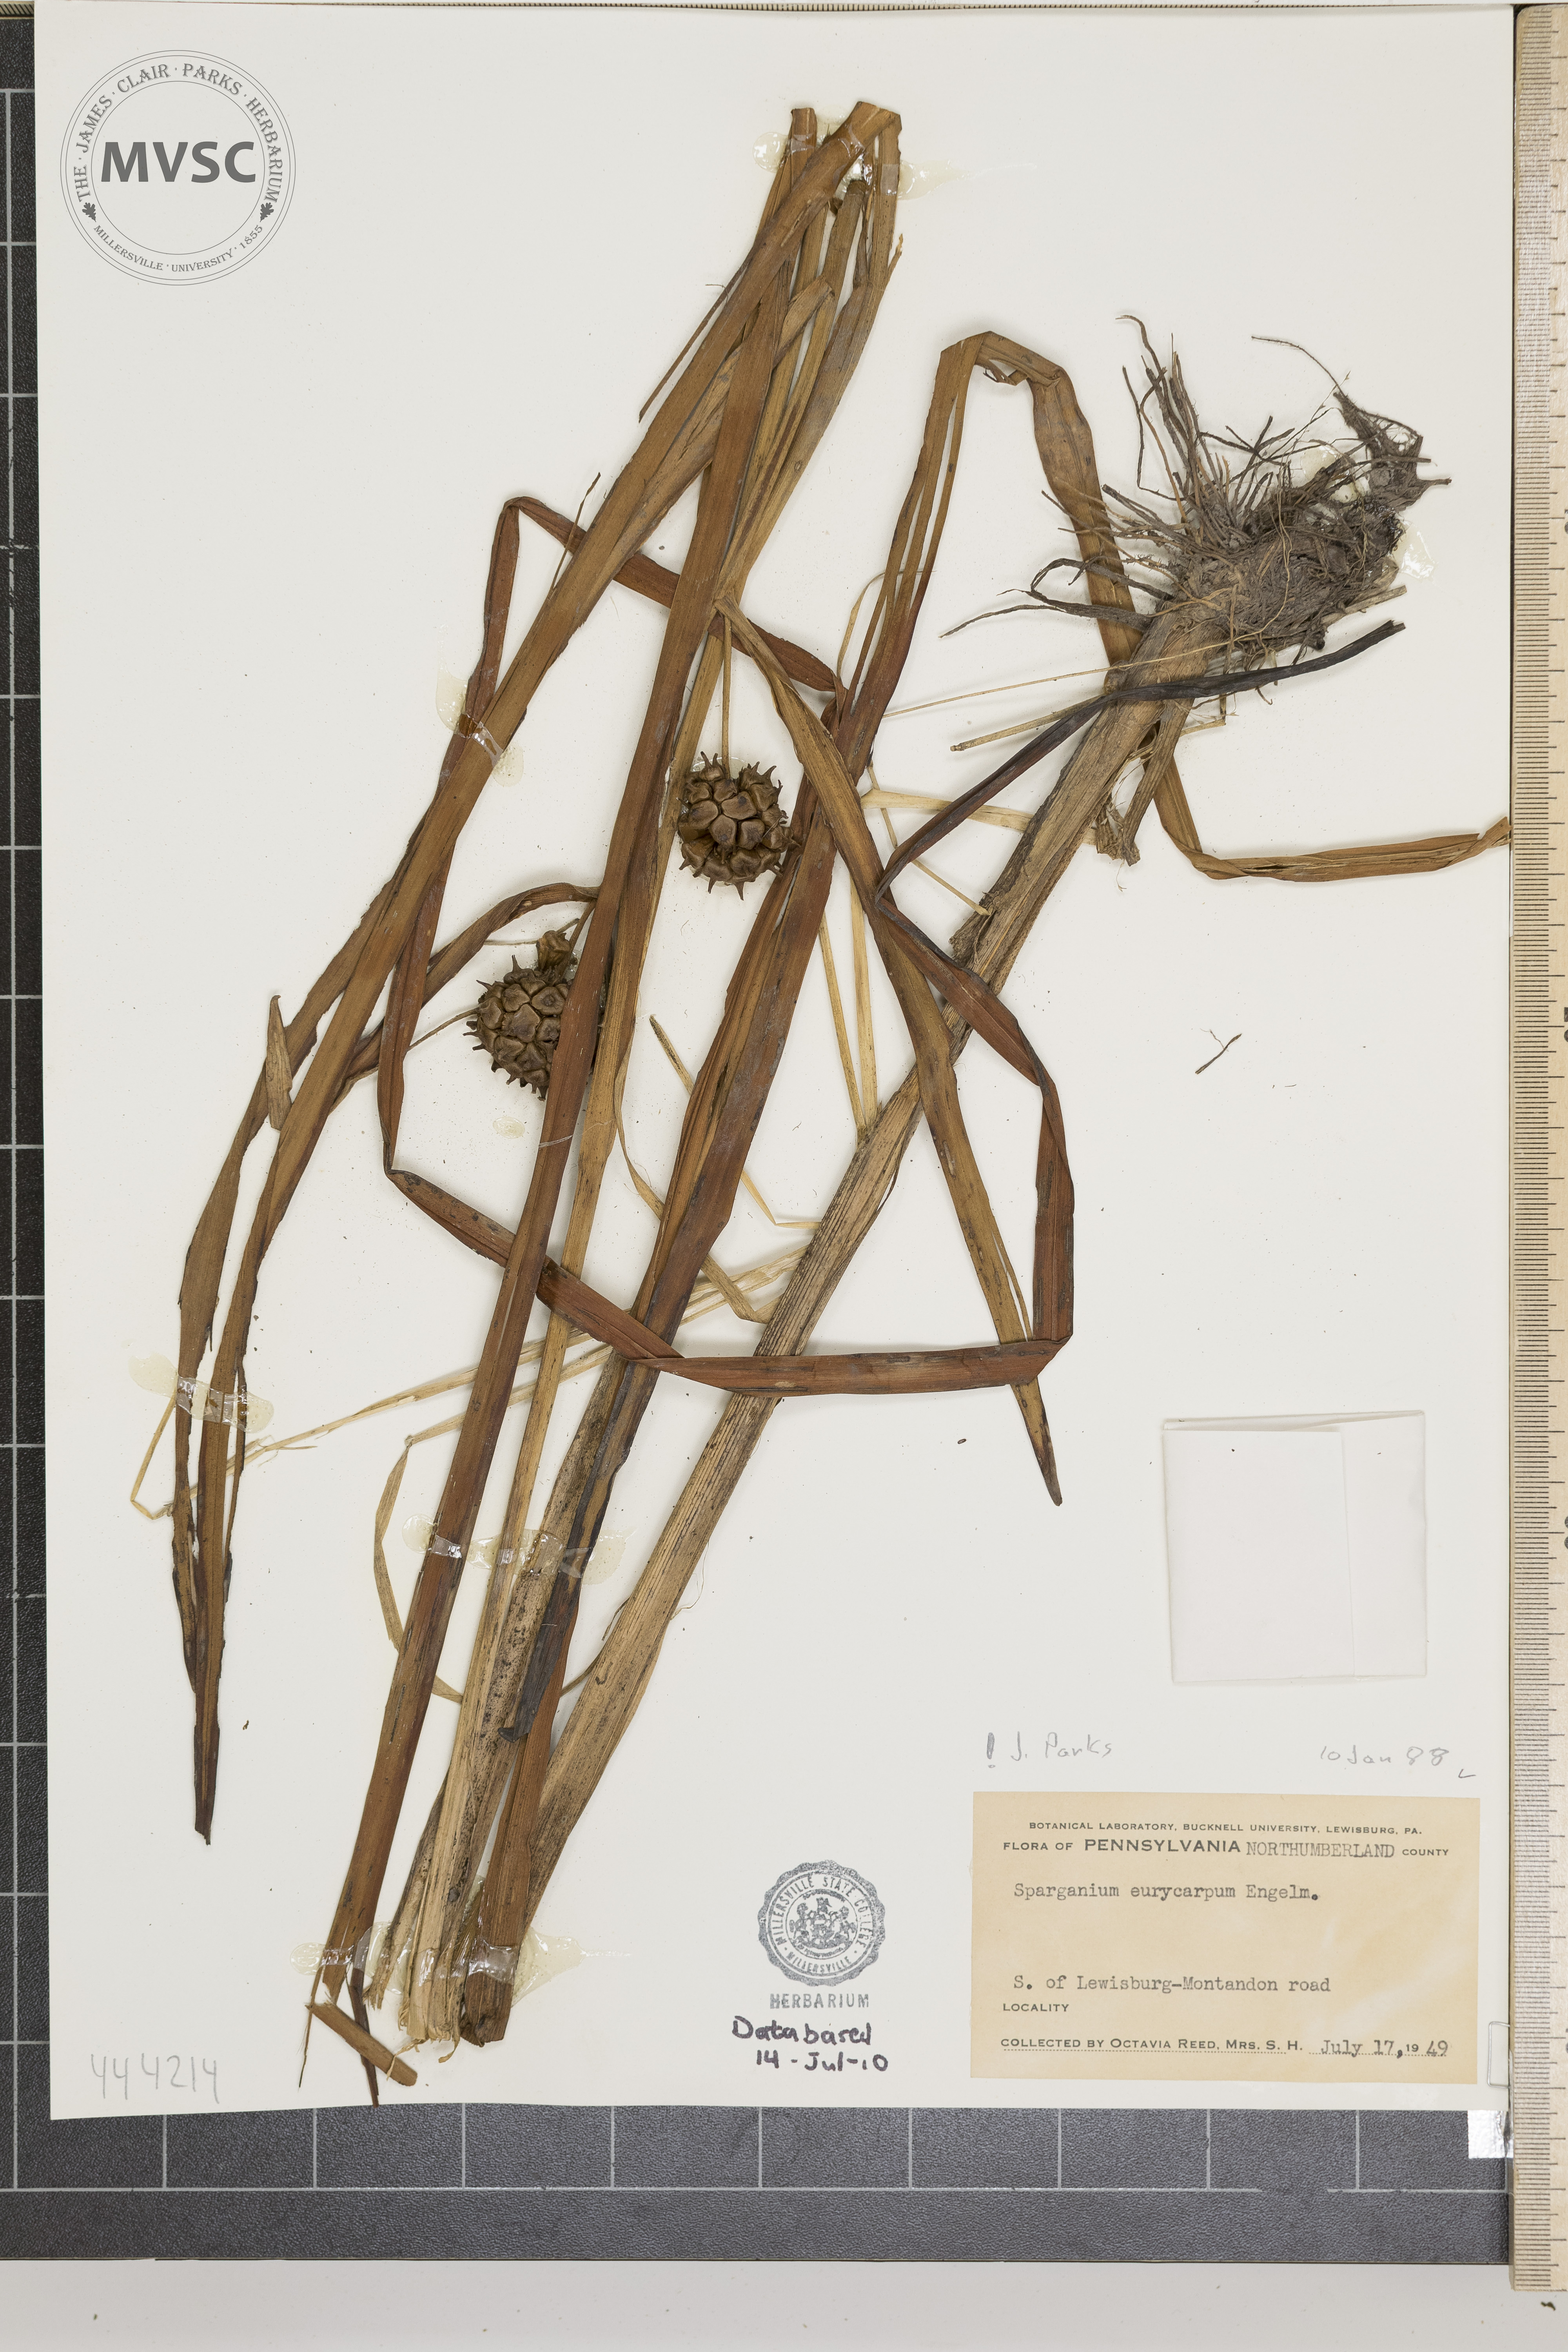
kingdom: Plantae
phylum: Tracheophyta
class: Liliopsida
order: Poales
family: Typhaceae
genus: Sparganium
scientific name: Sparganium eurycarpum
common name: Broad-fruited burreed
